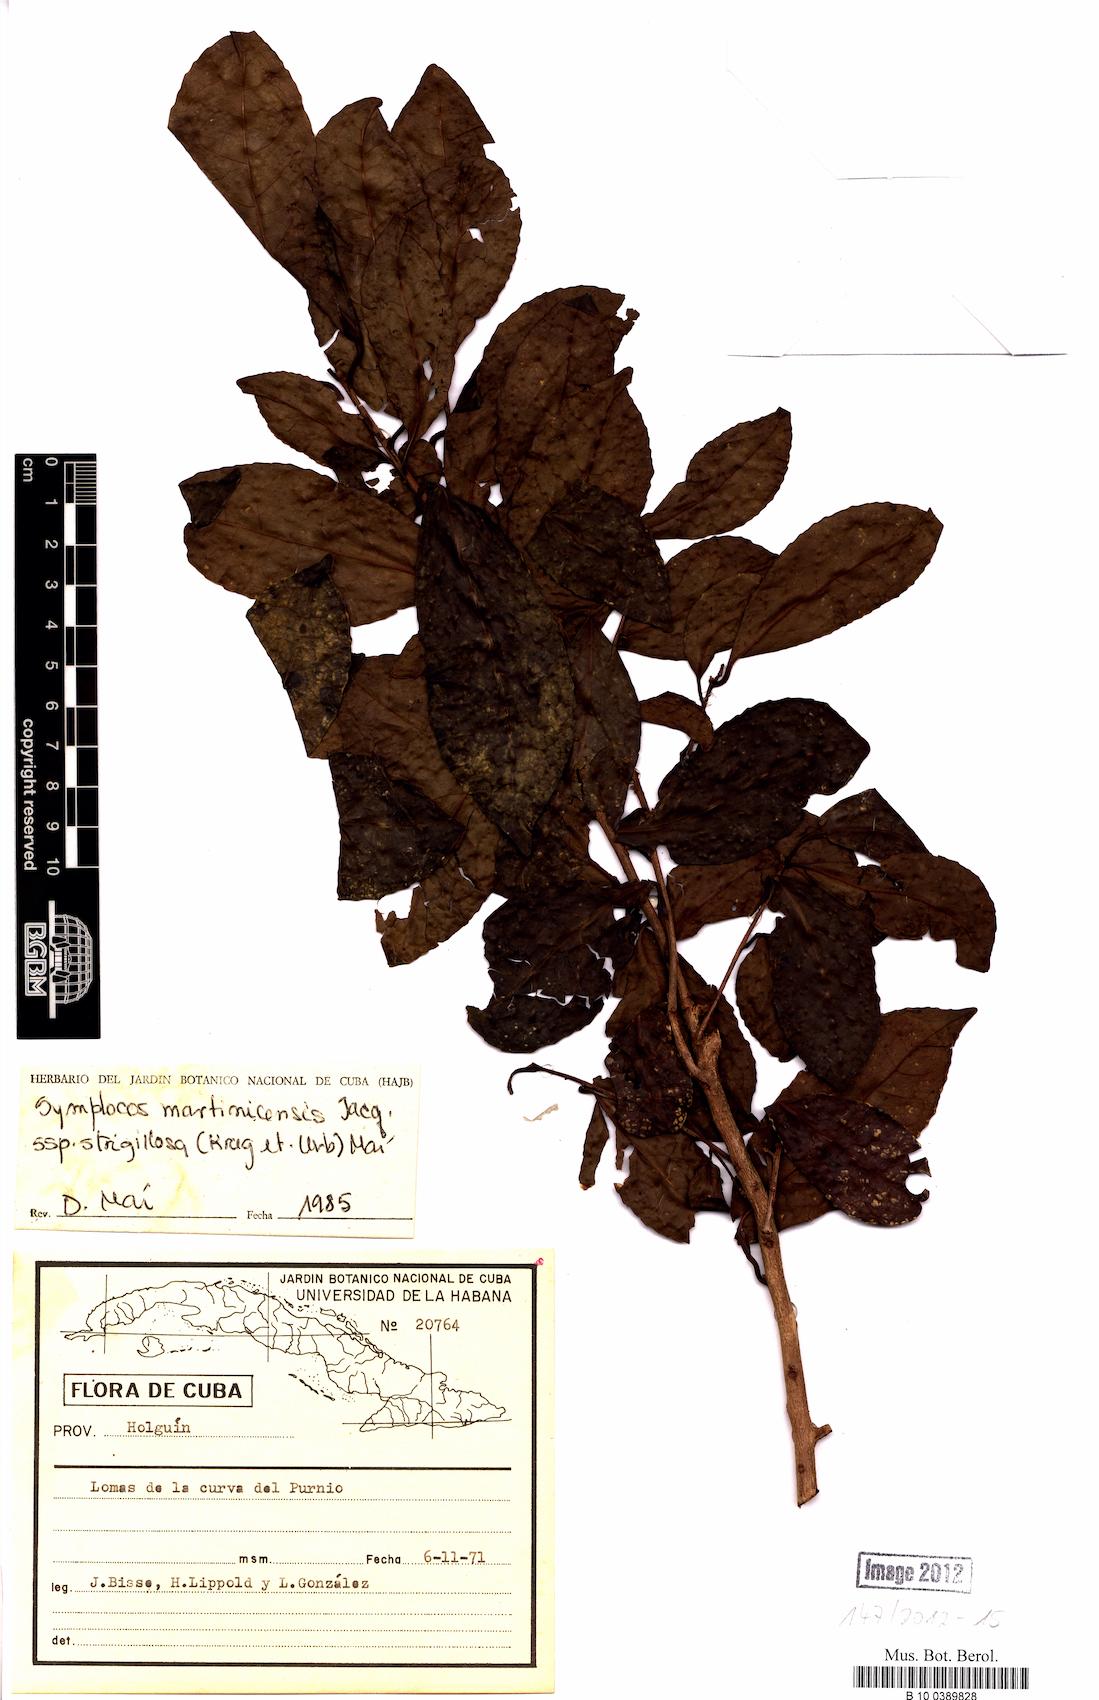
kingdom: Plantae
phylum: Tracheophyta
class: Magnoliopsida
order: Ericales
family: Symplocaceae
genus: Symplocos
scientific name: Symplocos jurgensenii
